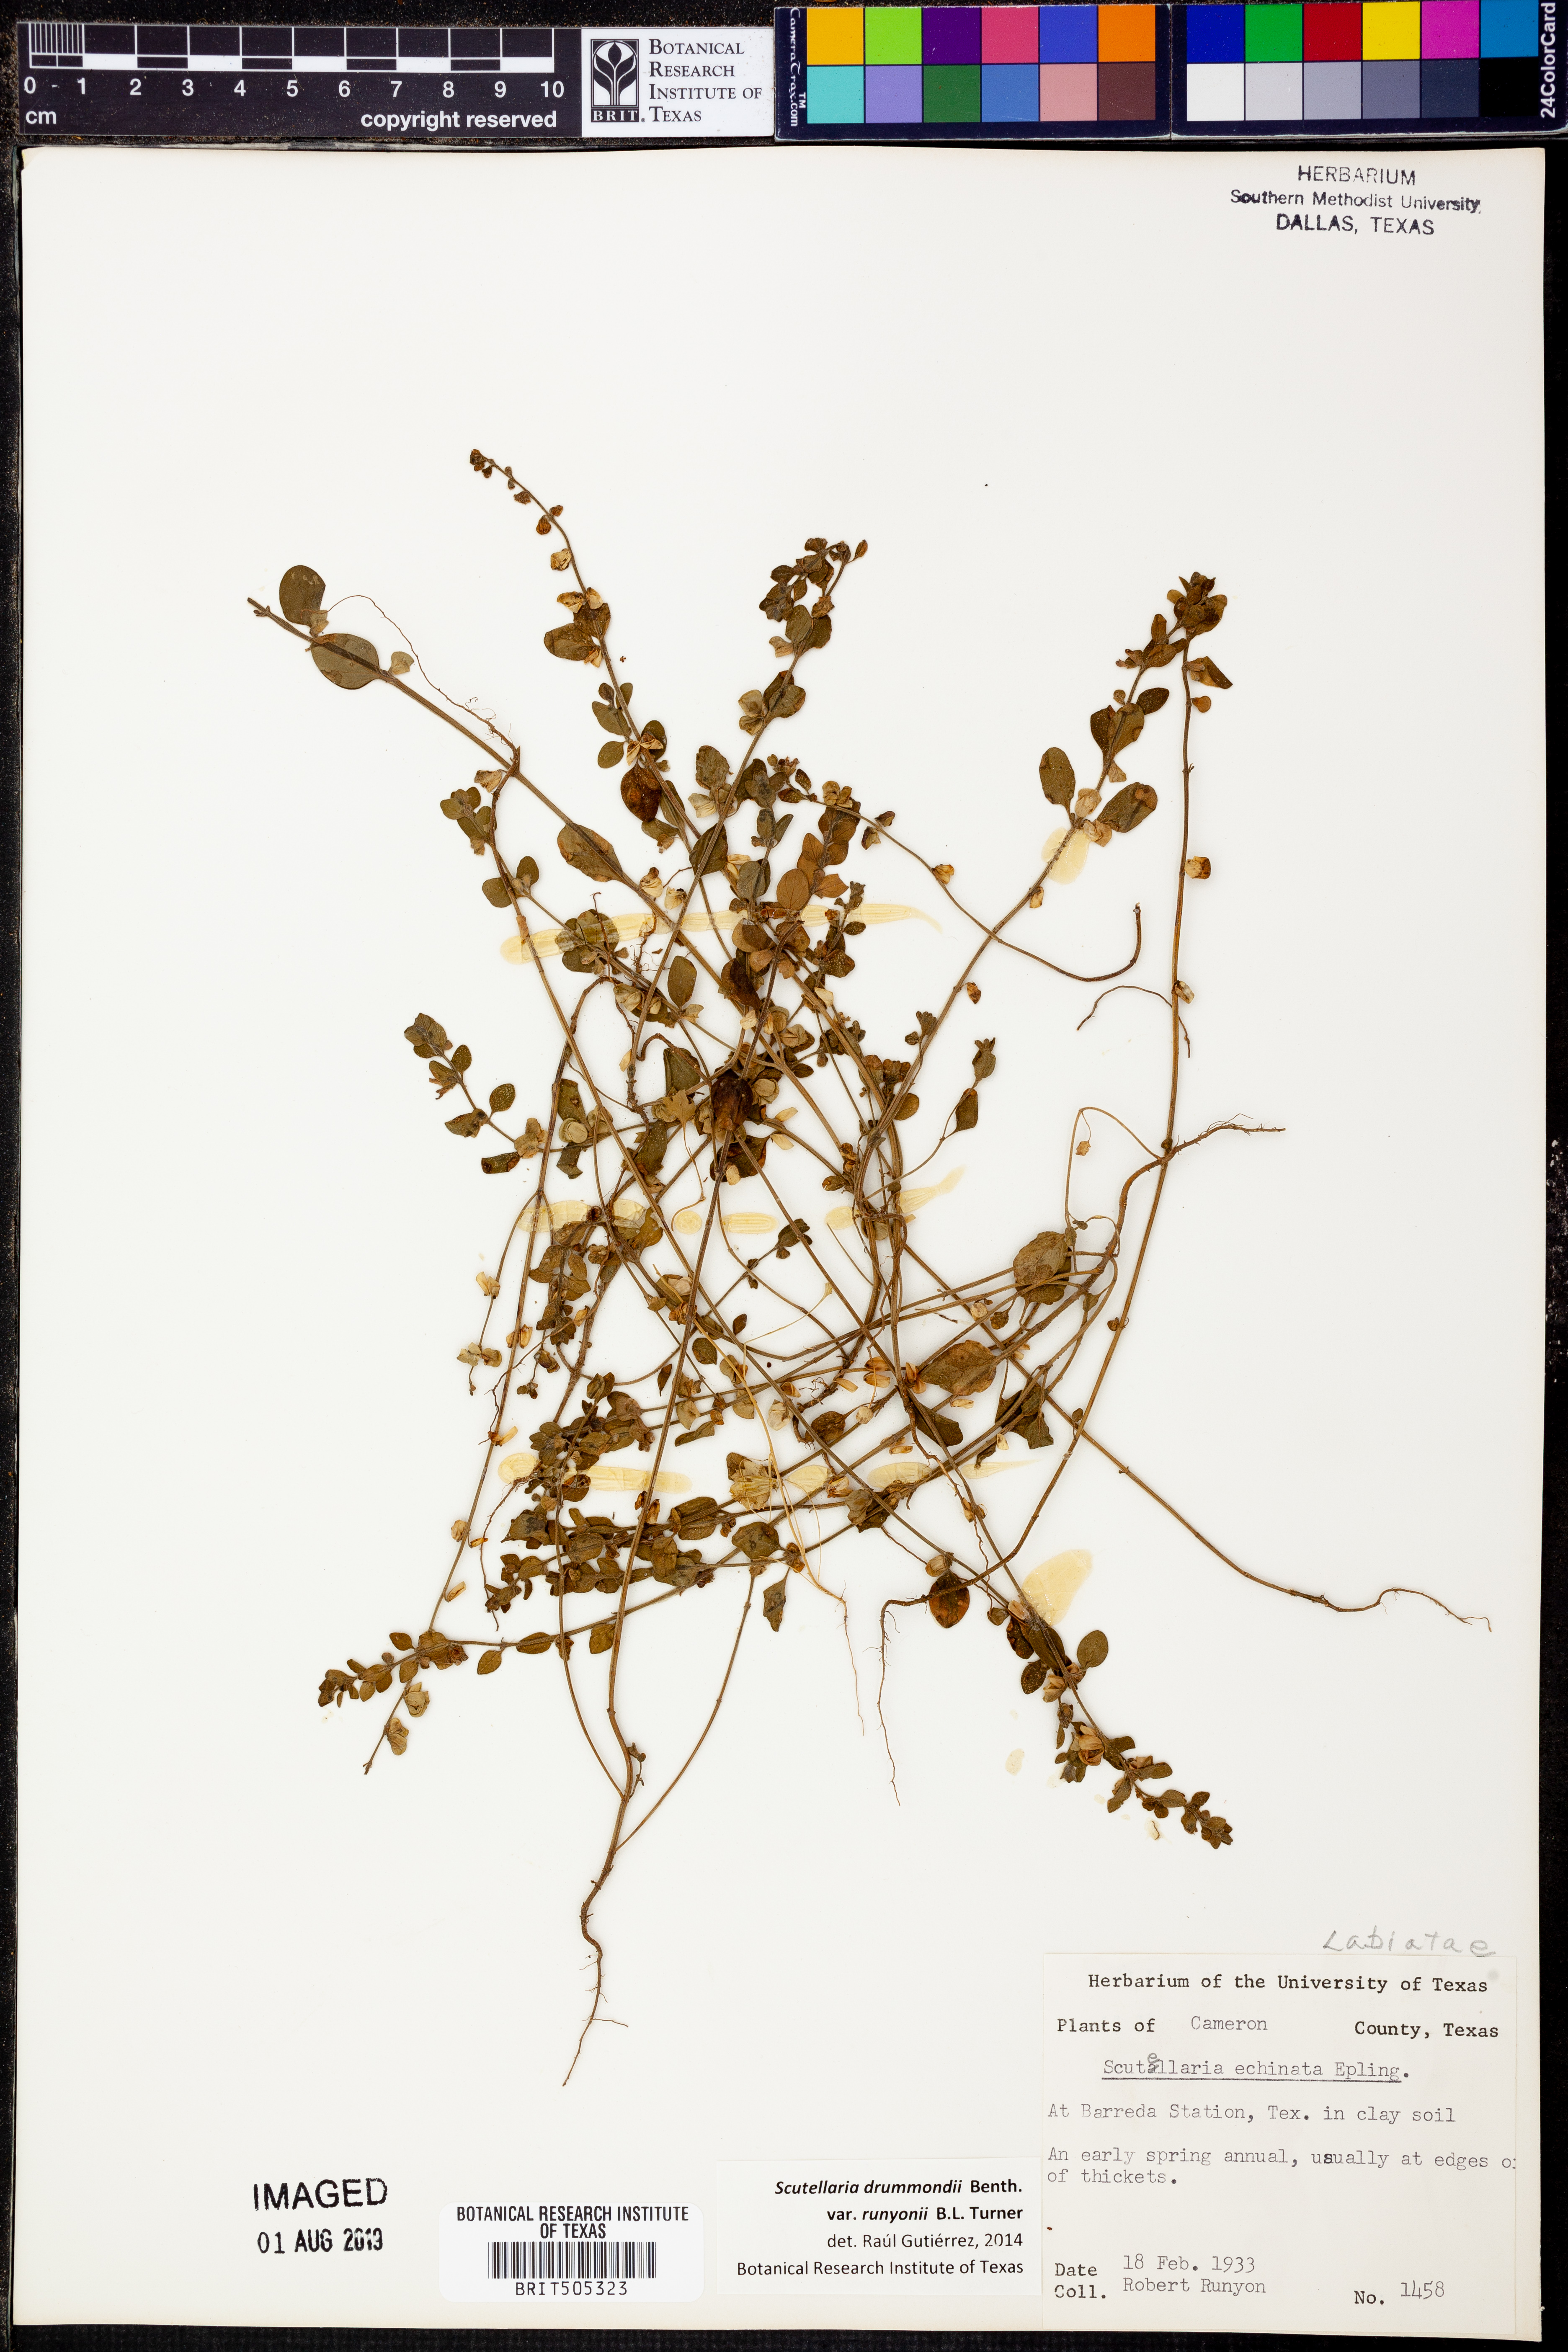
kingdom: Plantae
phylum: Tracheophyta
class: Magnoliopsida
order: Lamiales
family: Lamiaceae
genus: Scutellaria
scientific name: Scutellaria drummondii
